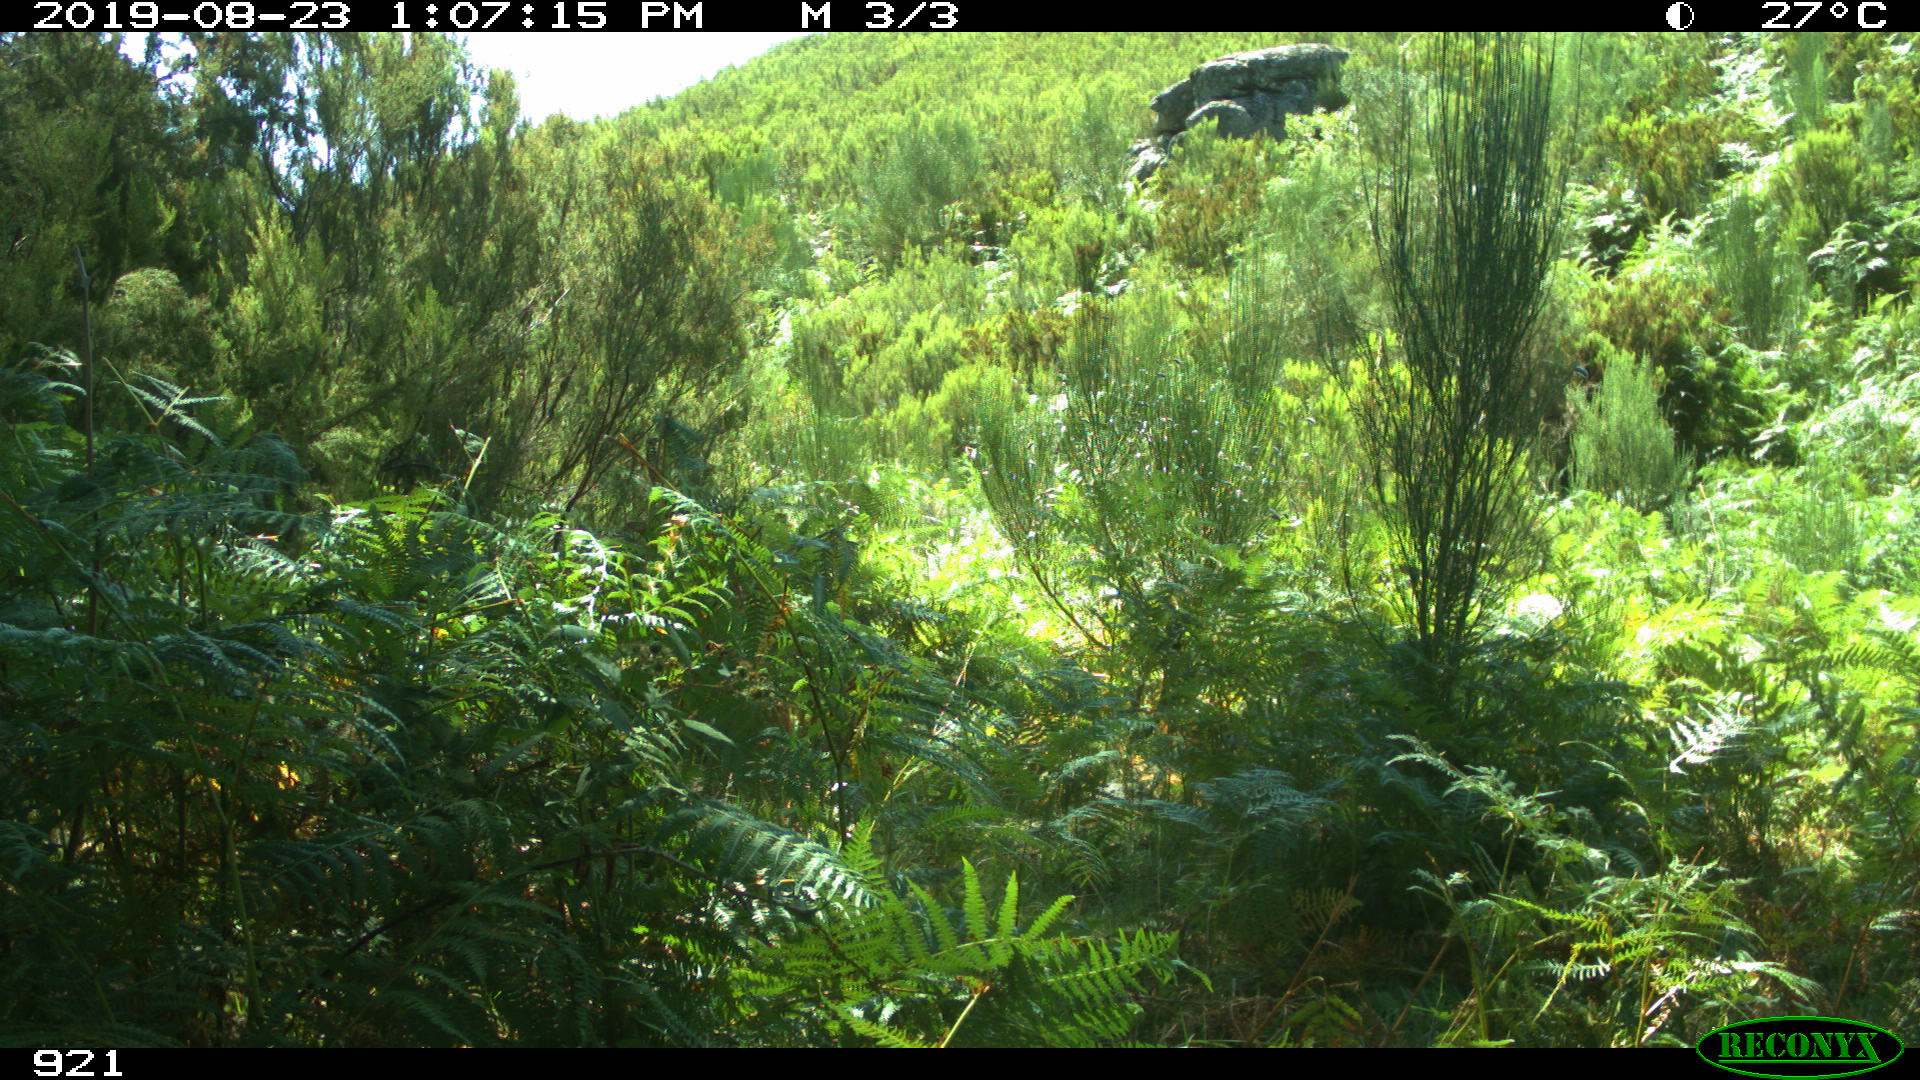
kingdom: Animalia
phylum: Chordata
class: Mammalia
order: Perissodactyla
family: Equidae
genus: Equus
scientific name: Equus caballus
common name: Horse
